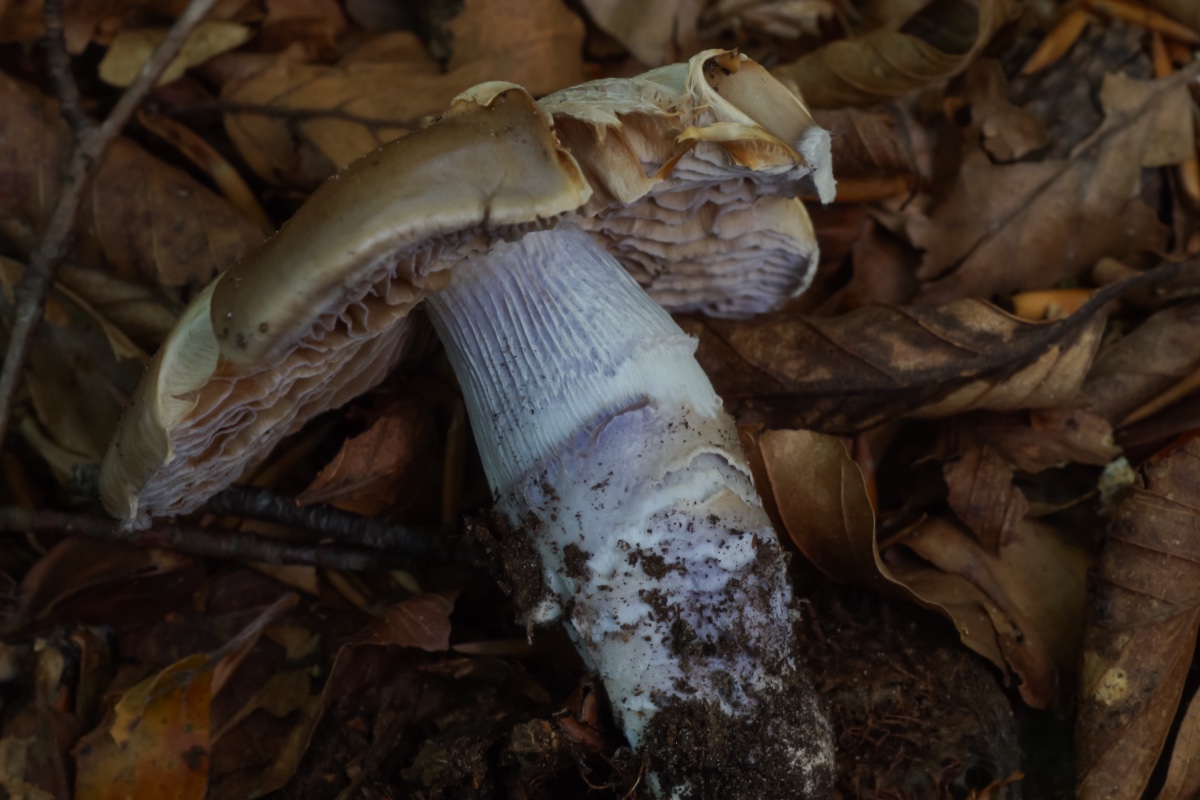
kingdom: Fungi
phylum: Basidiomycota
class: Agaricomycetes
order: Agaricales
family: Cortinariaceae
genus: Cortinarius
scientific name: Cortinarius elatior
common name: høj slørhat
